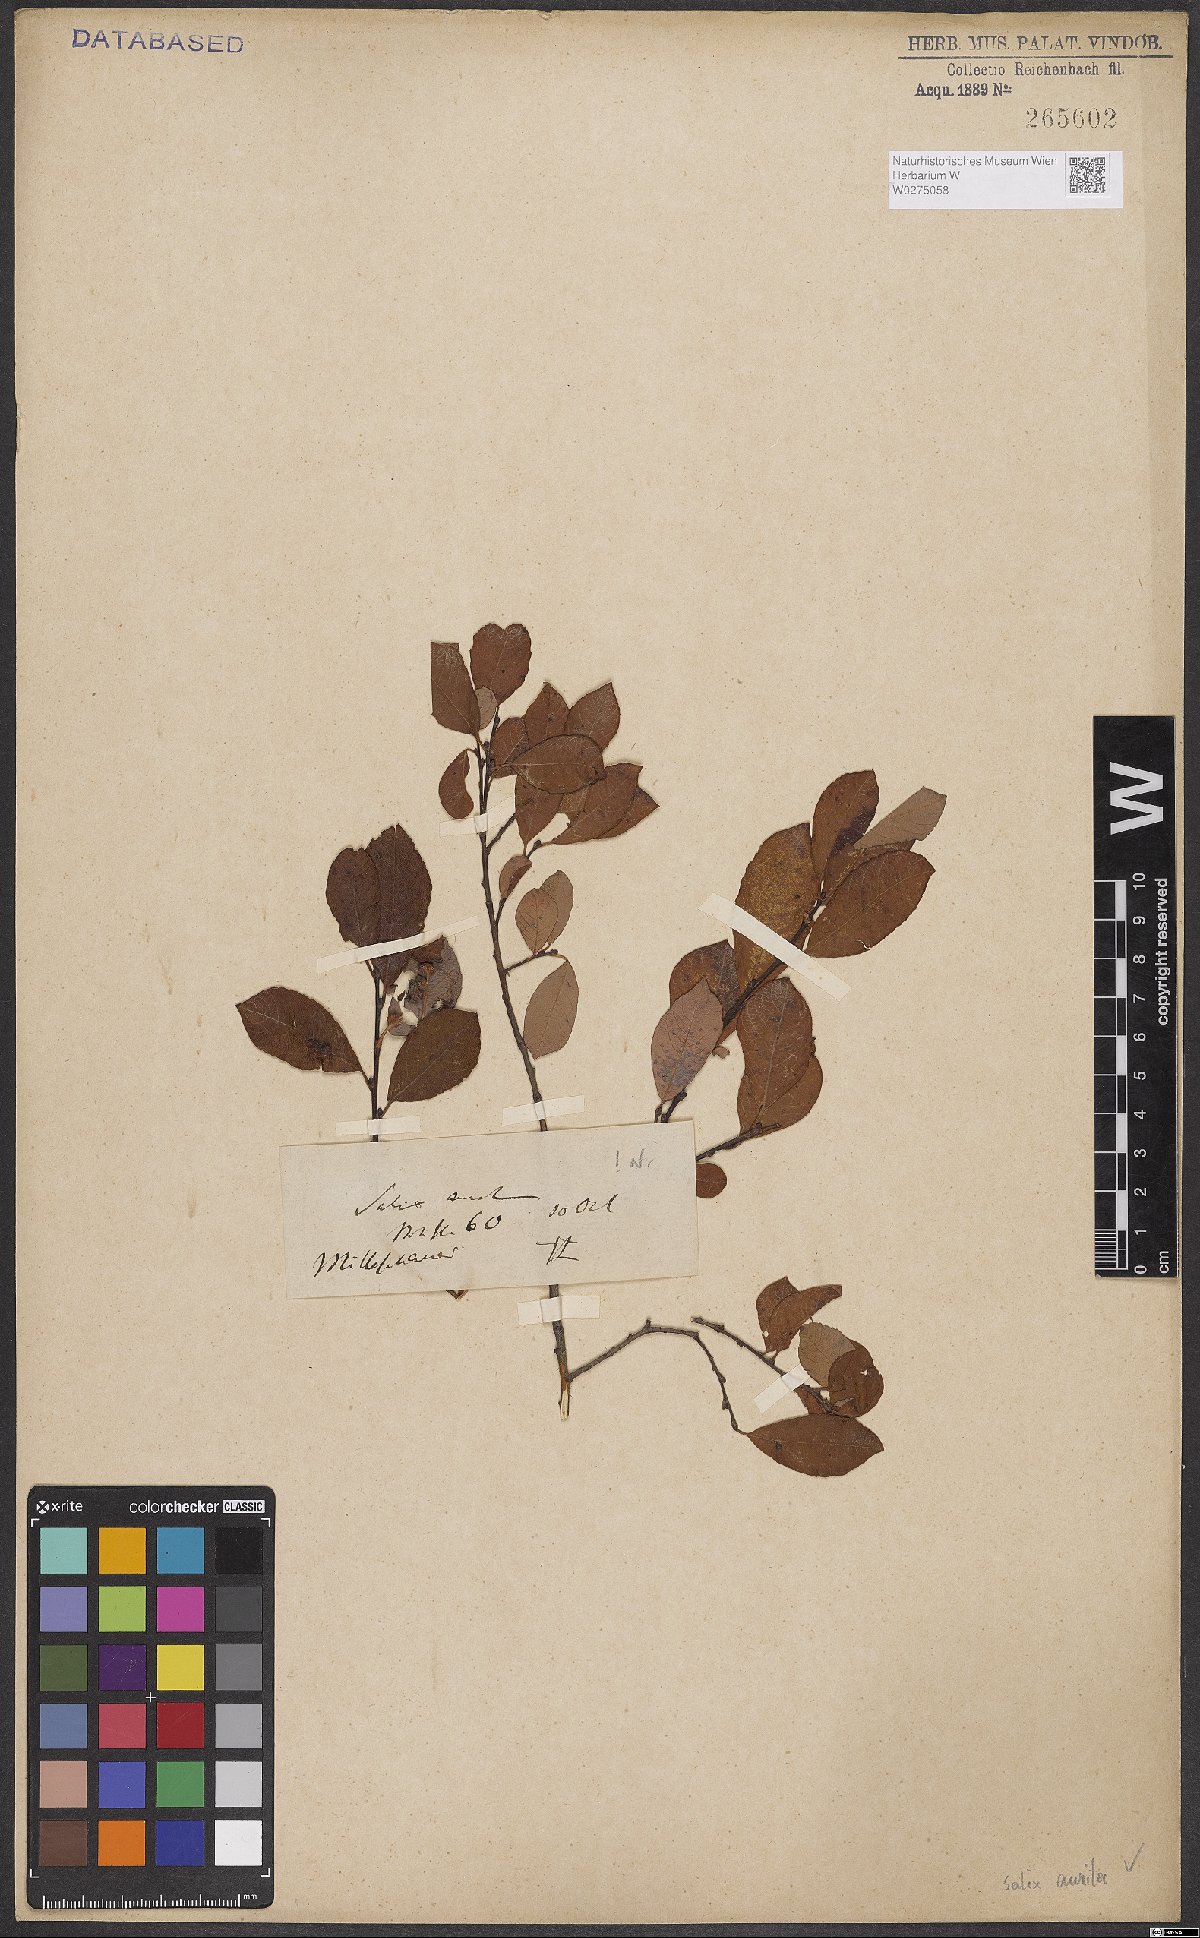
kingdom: Plantae
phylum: Tracheophyta
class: Magnoliopsida
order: Malpighiales
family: Salicaceae
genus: Salix
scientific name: Salix aurita
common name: Eared willow
